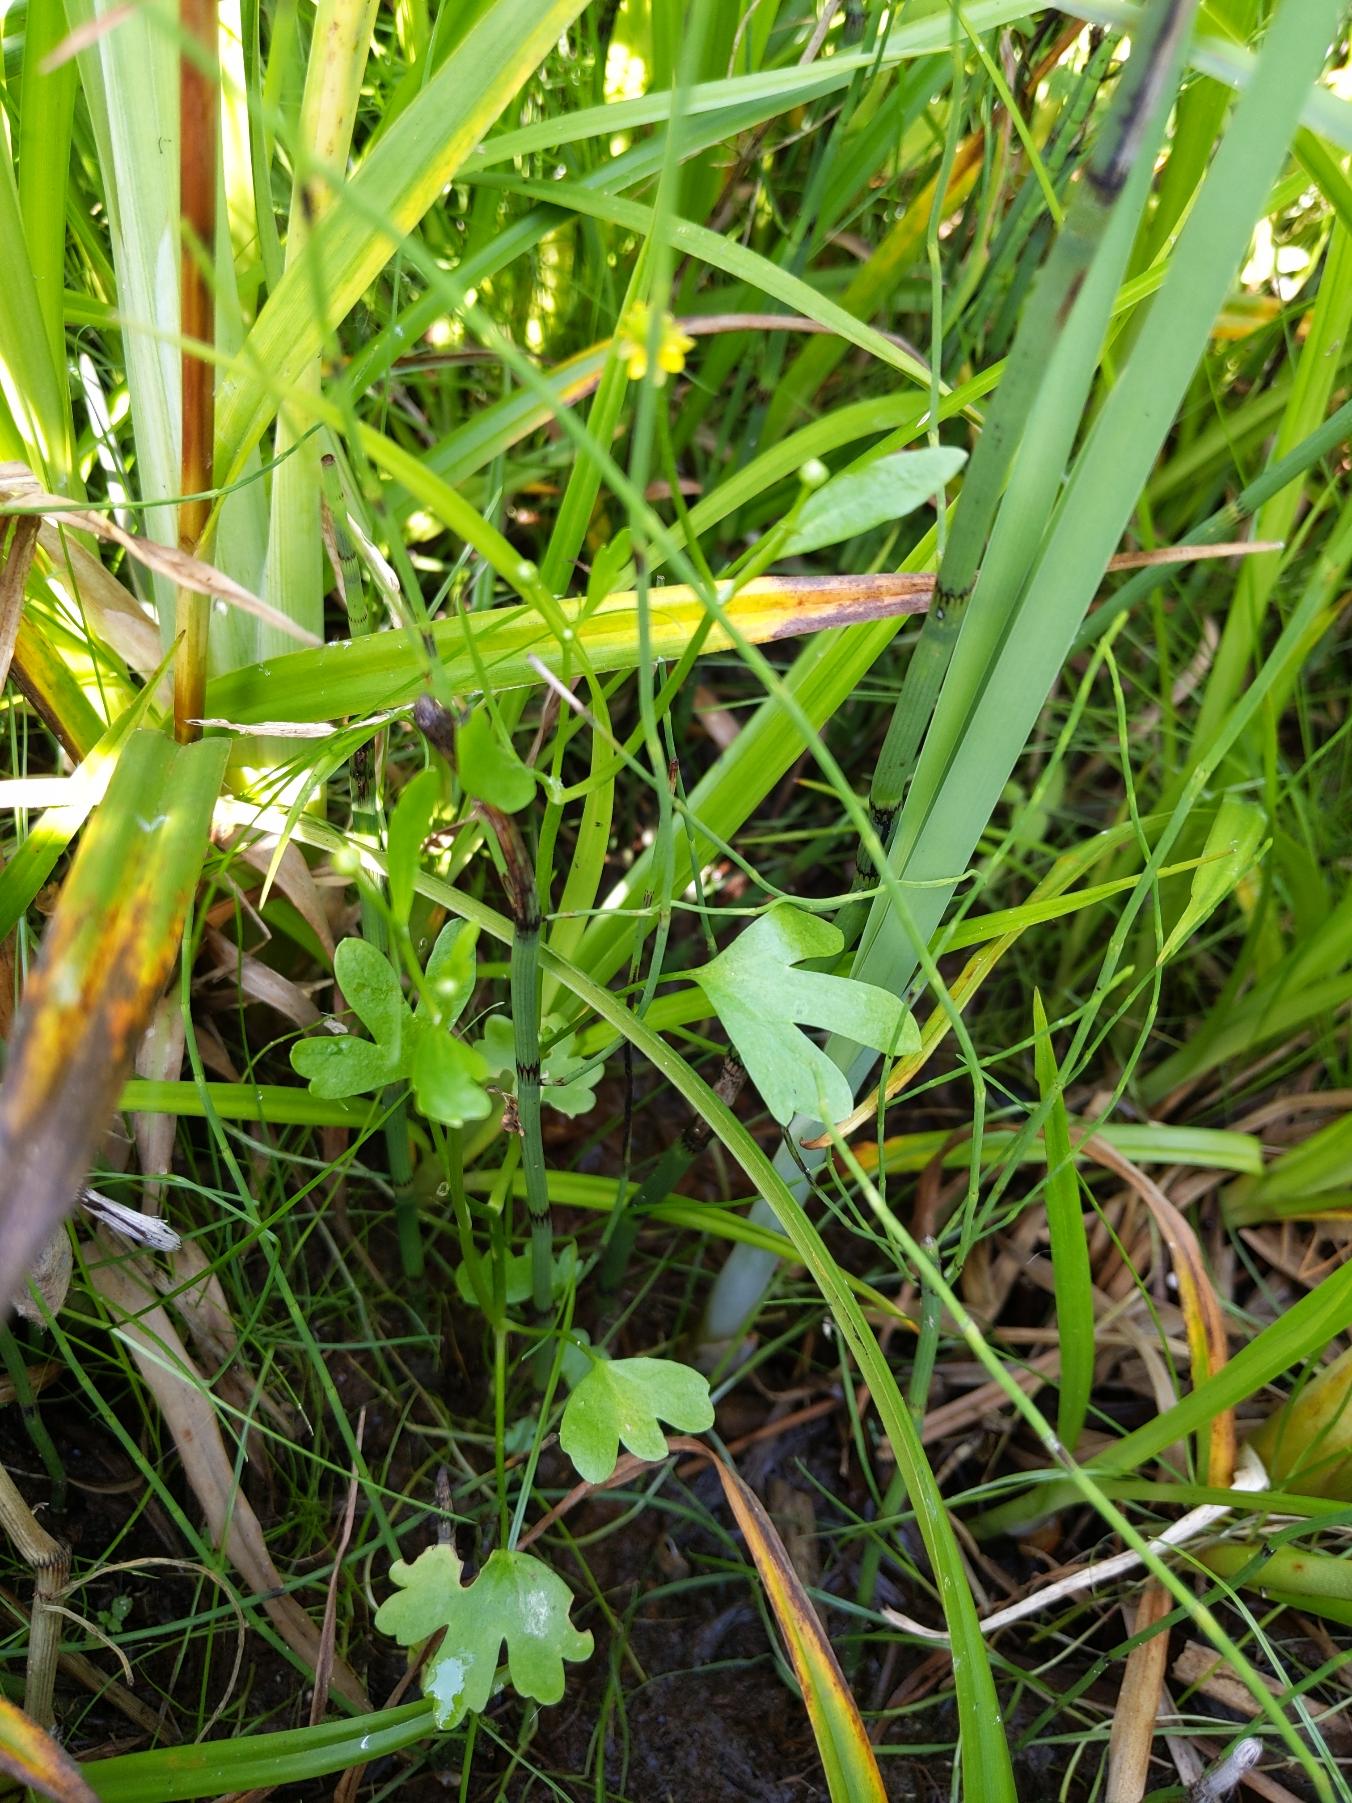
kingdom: Plantae
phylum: Tracheophyta
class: Magnoliopsida
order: Ranunculales
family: Ranunculaceae
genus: Ranunculus
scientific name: Ranunculus sceleratus
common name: Tigger-ranunkel
